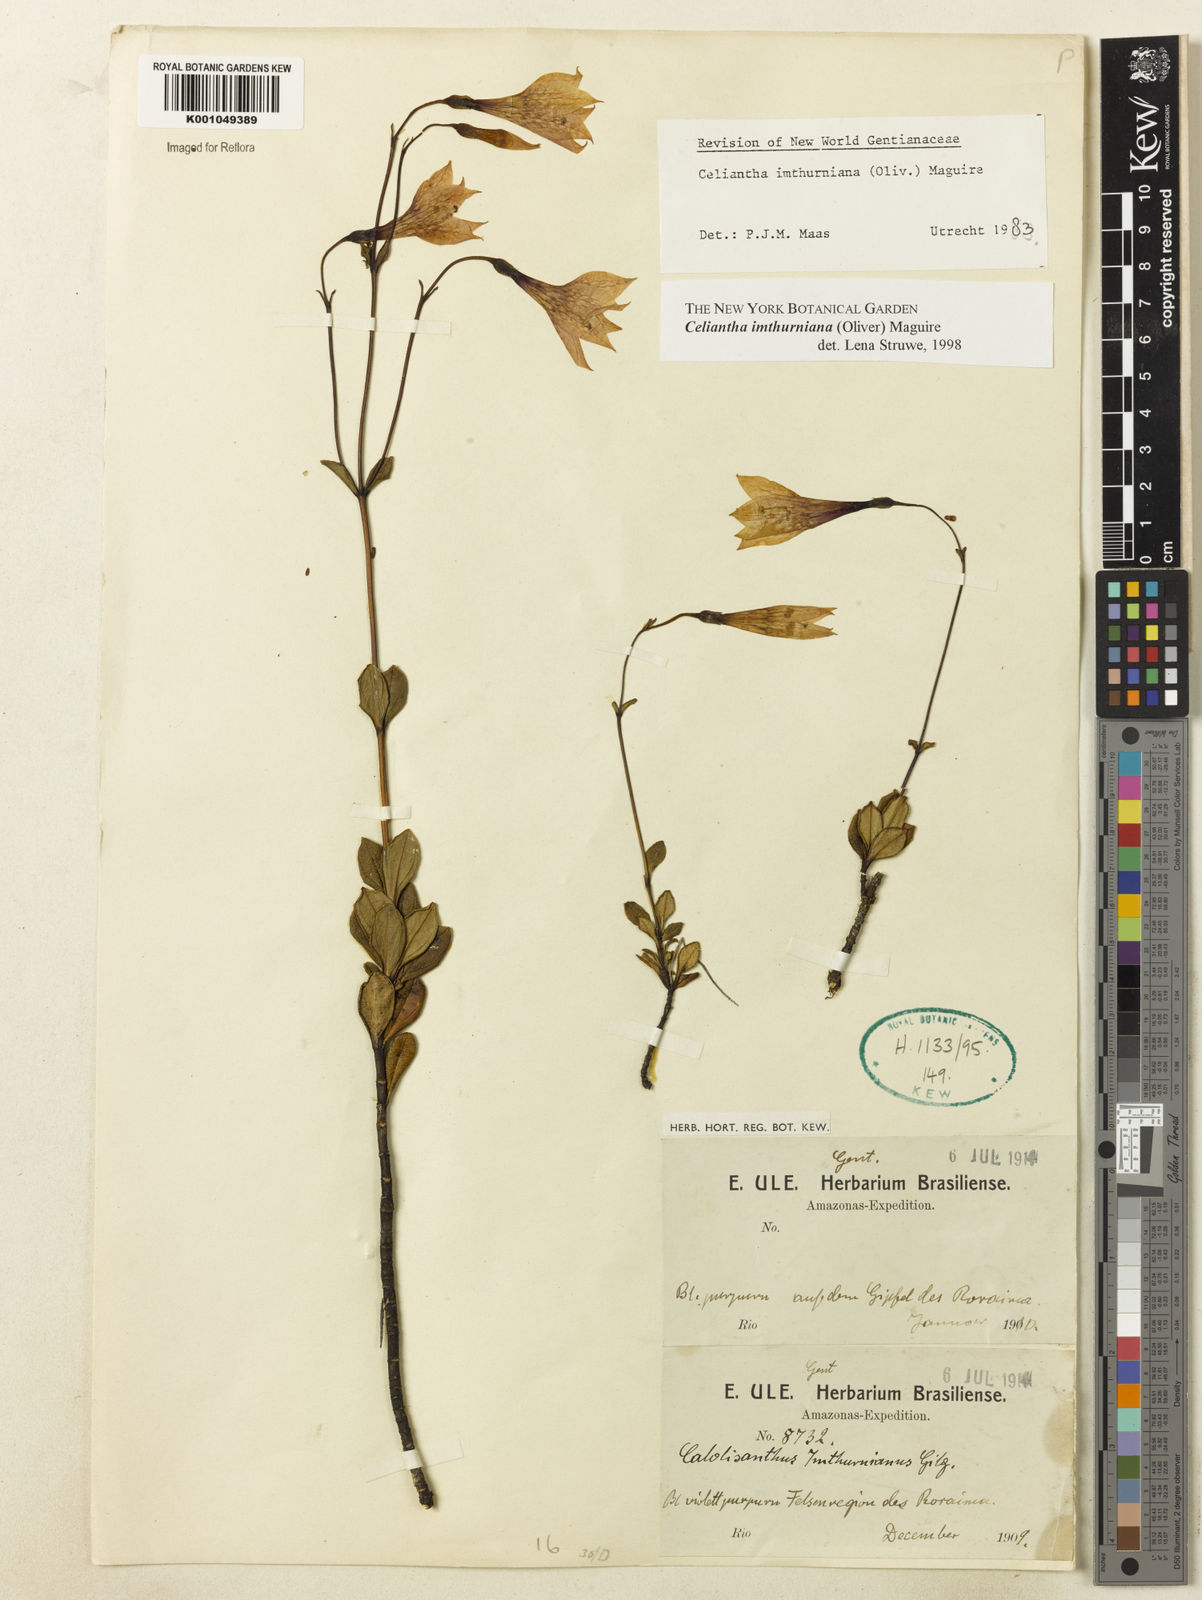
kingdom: Plantae
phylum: Tracheophyta
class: Magnoliopsida
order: Gentianales
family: Gentianaceae
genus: Celiantha
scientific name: Celiantha imthurniana
